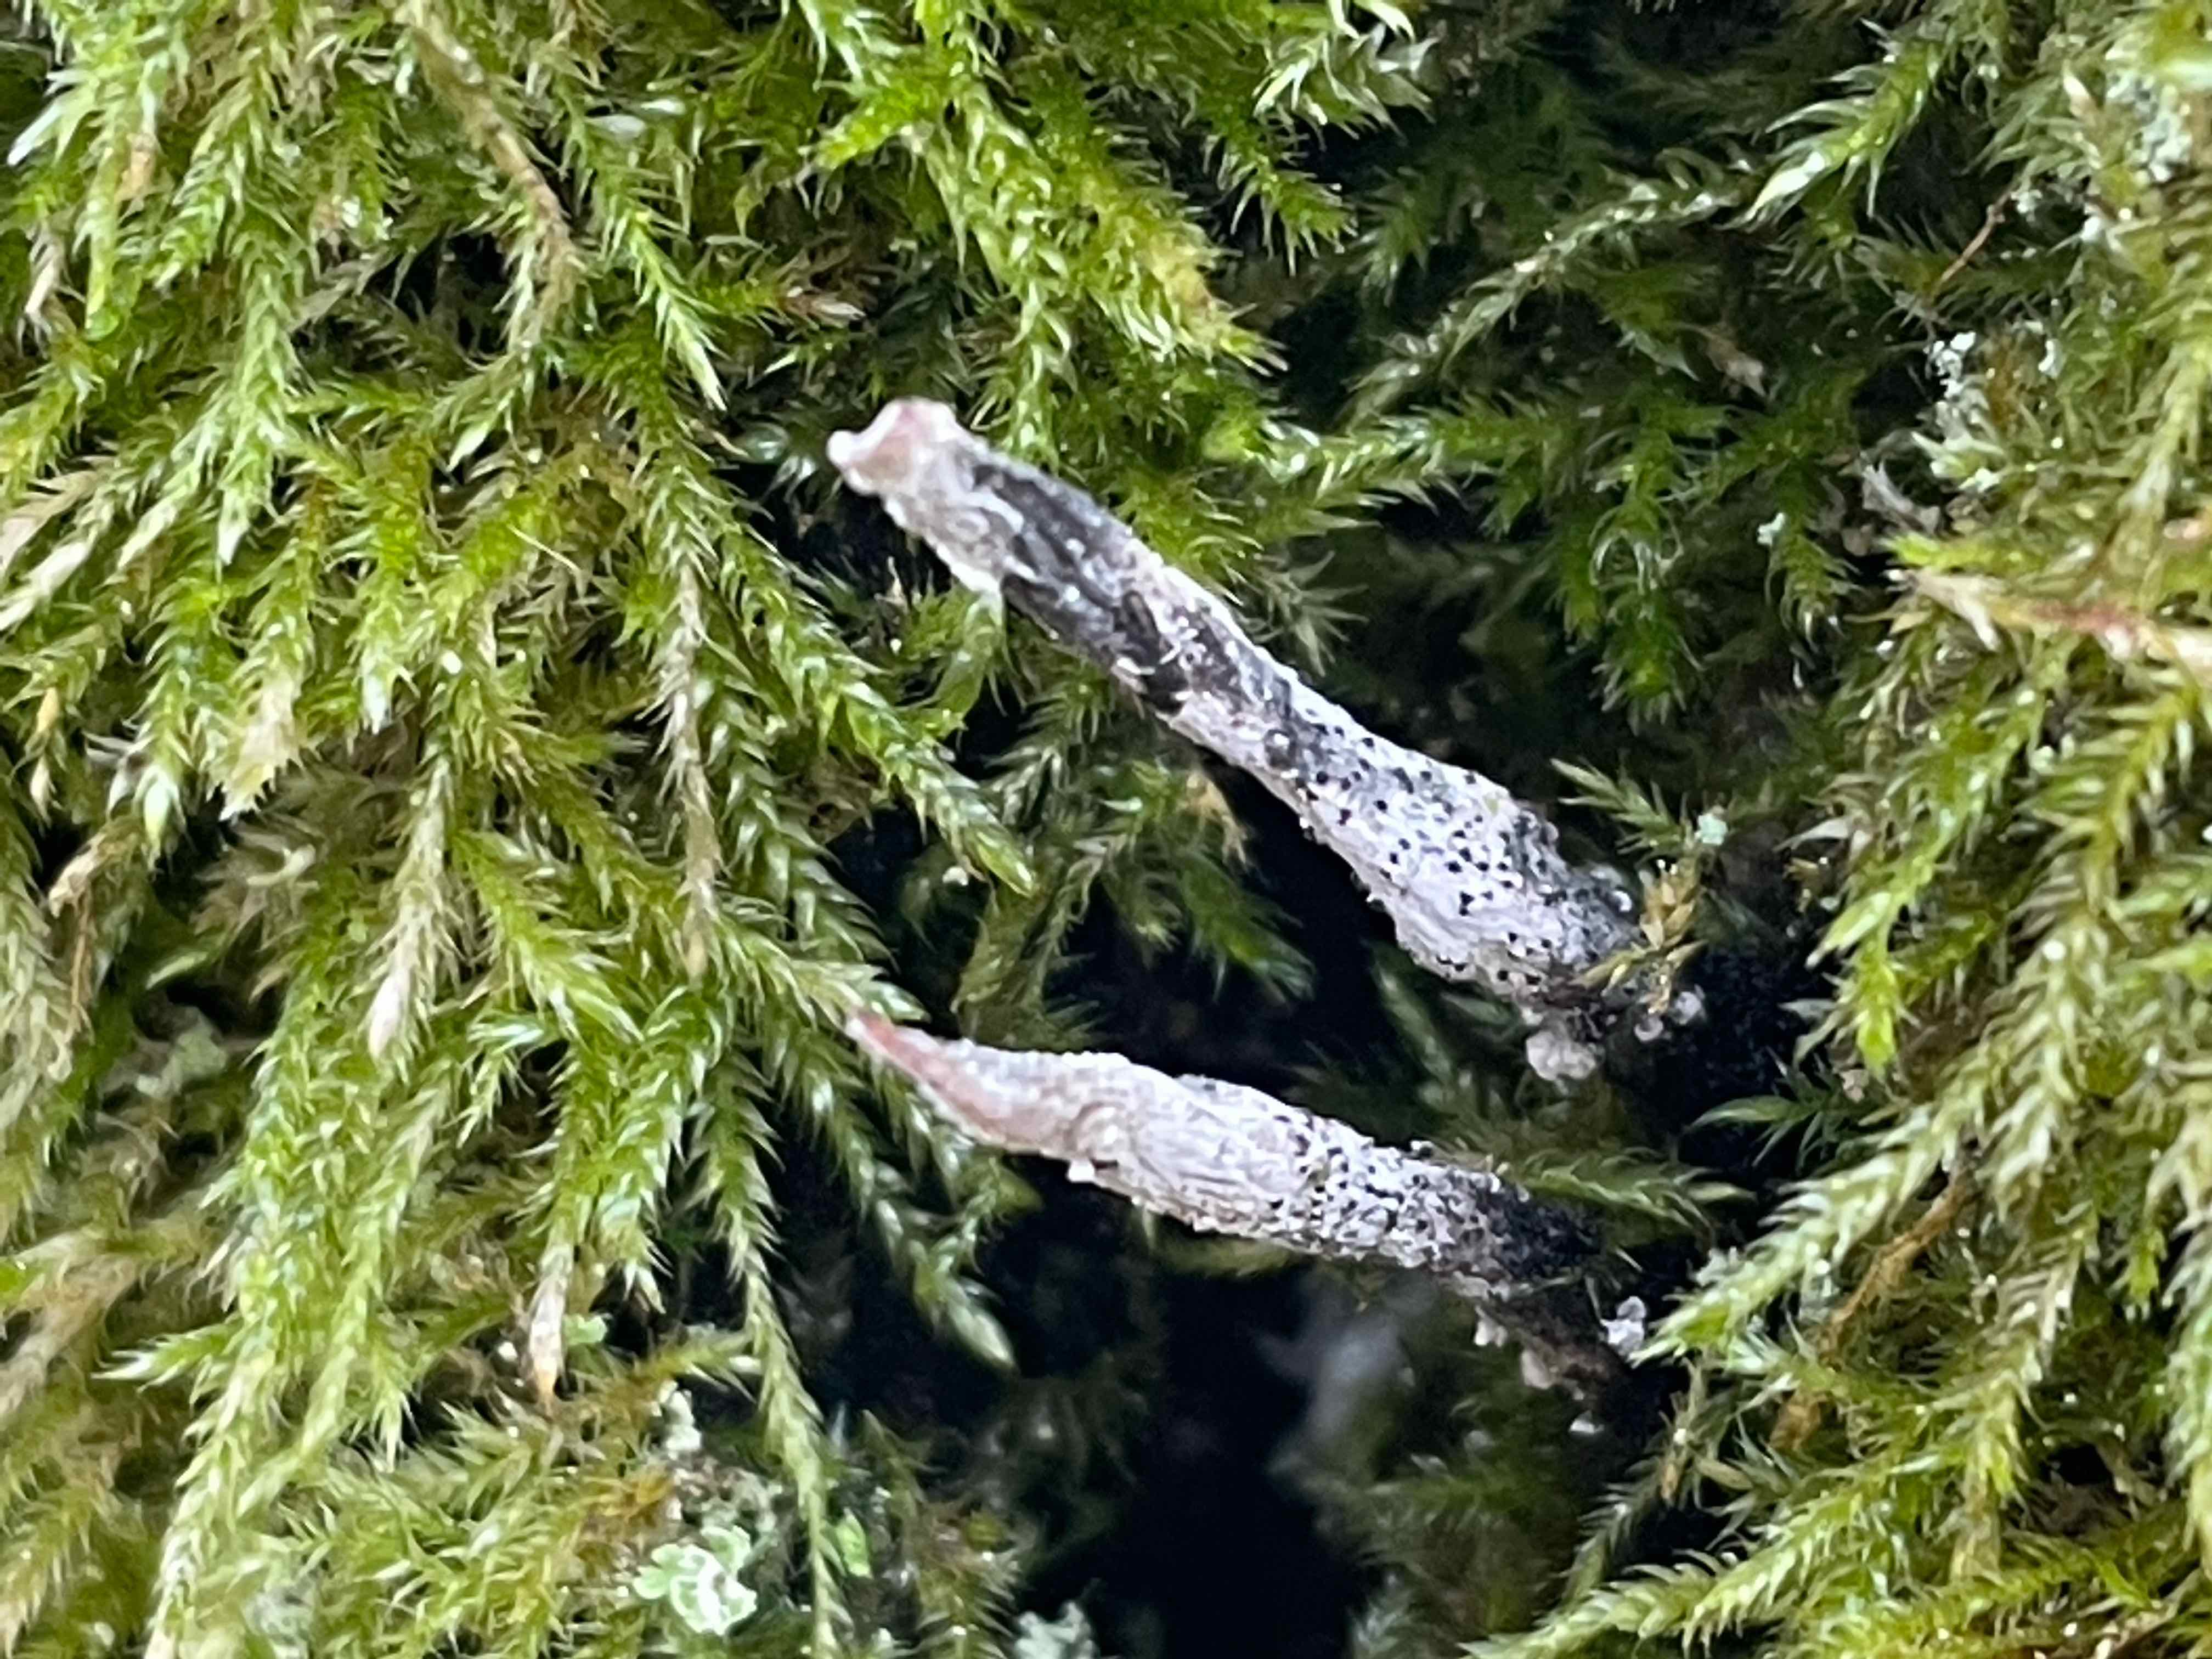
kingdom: Fungi
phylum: Ascomycota
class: Sordariomycetes
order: Xylariales
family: Xylariaceae
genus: Xylaria
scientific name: Xylaria hypoxylon
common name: grenet stødsvamp
